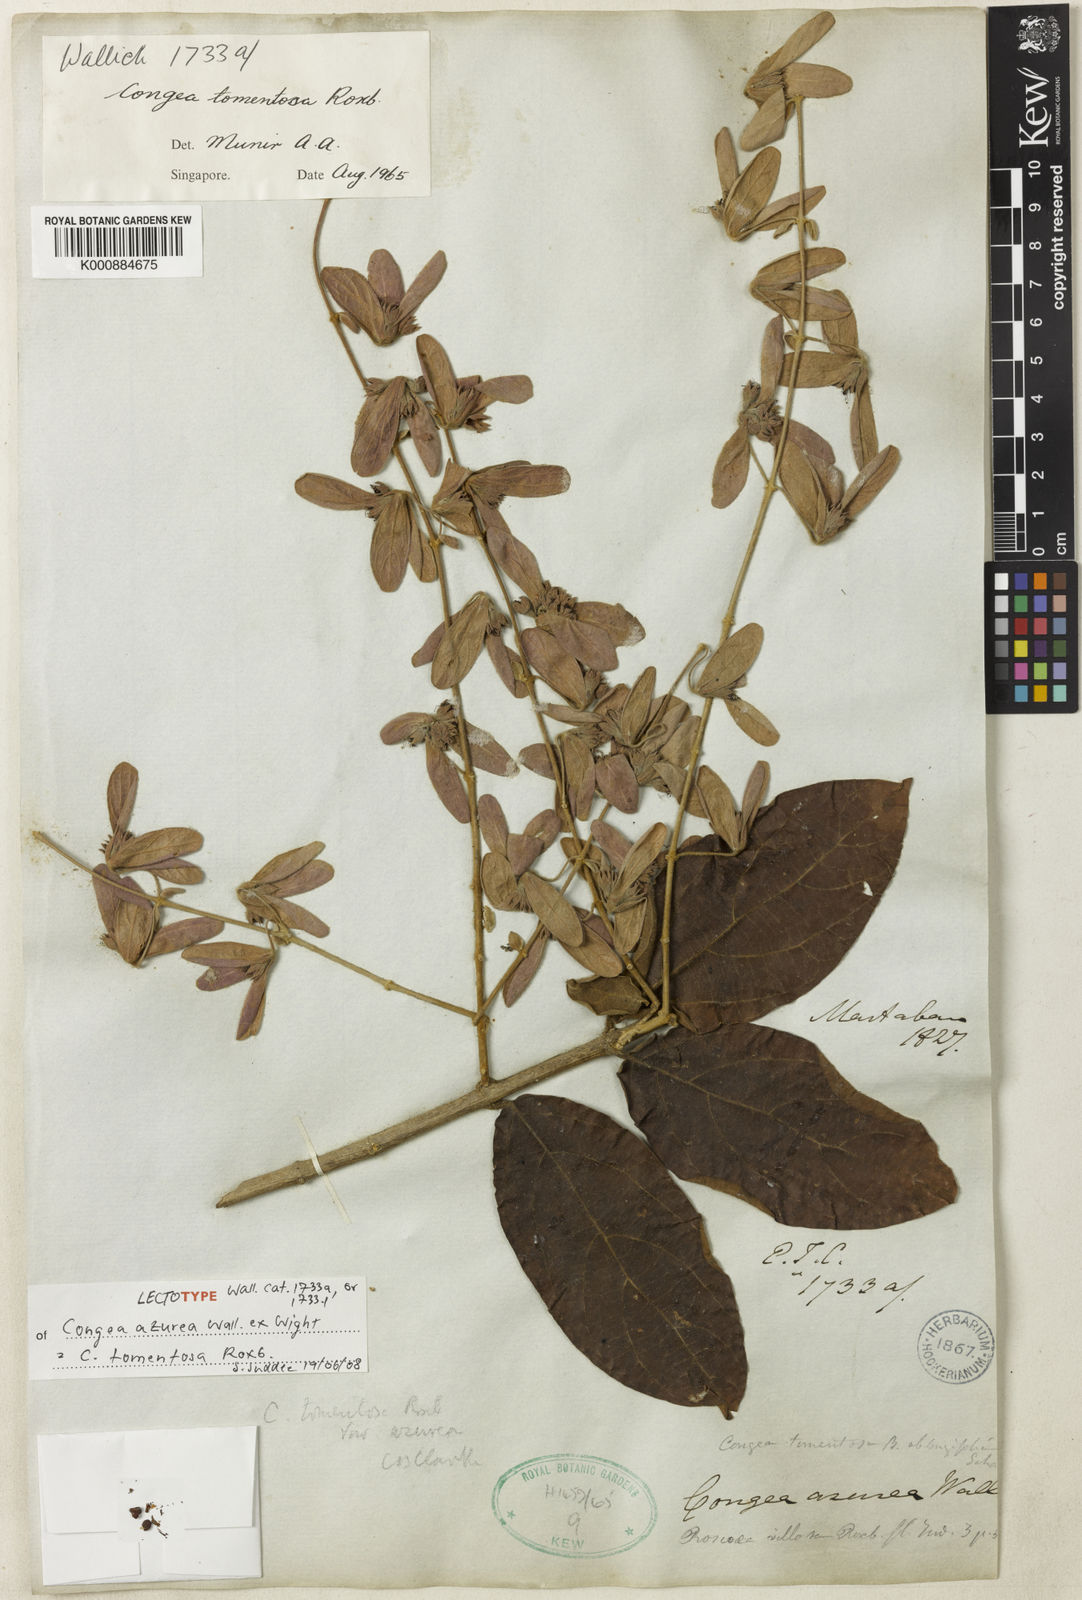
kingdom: Plantae
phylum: Tracheophyta
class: Magnoliopsida
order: Lamiales
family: Lamiaceae
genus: Congea
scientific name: Congea tomentosa
